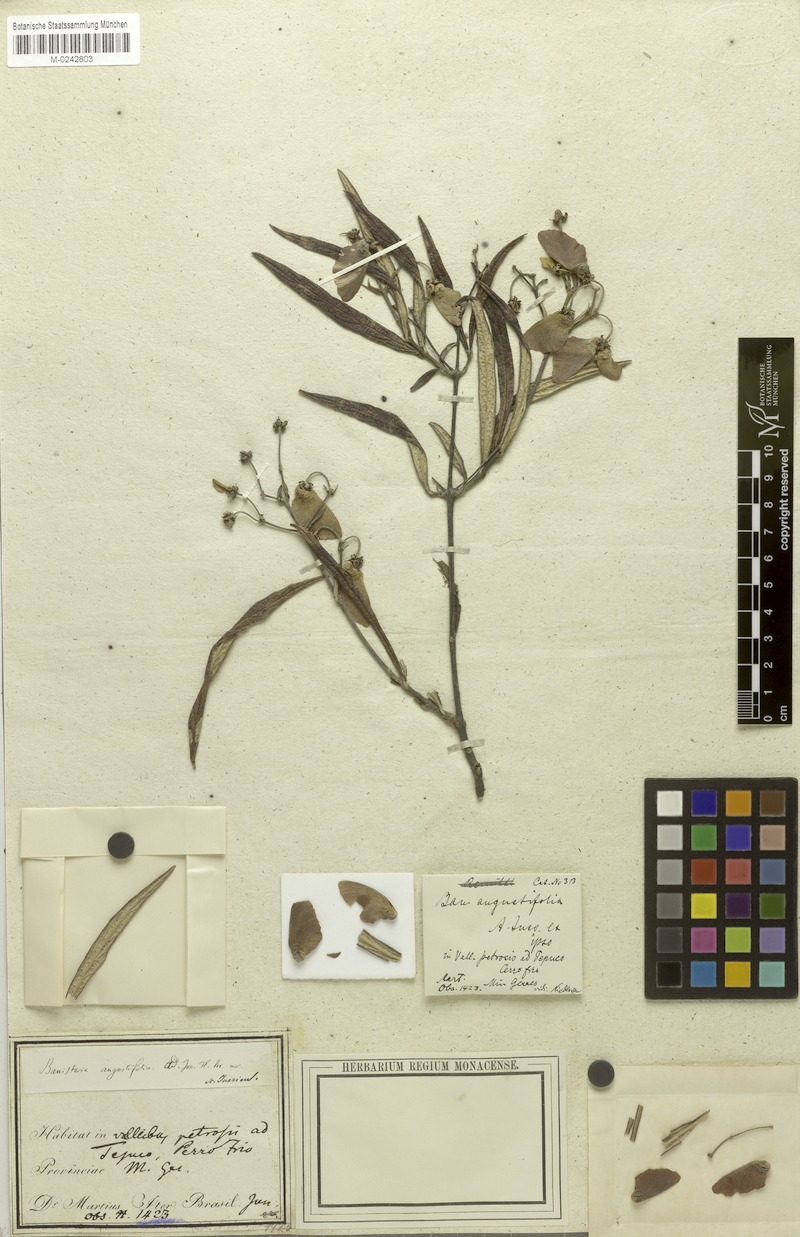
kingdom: Plantae
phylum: Tracheophyta
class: Magnoliopsida
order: Malpighiales
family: Malpighiaceae
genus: Banisteriopsis
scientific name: Banisteriopsis angustifolia
